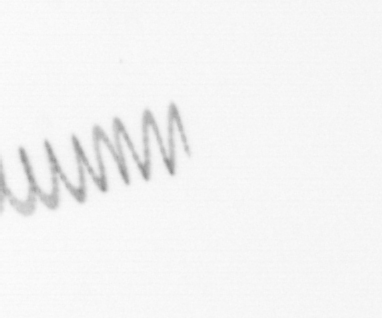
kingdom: Chromista
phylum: Ochrophyta
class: Bacillariophyceae
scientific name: Bacillariophyceae
